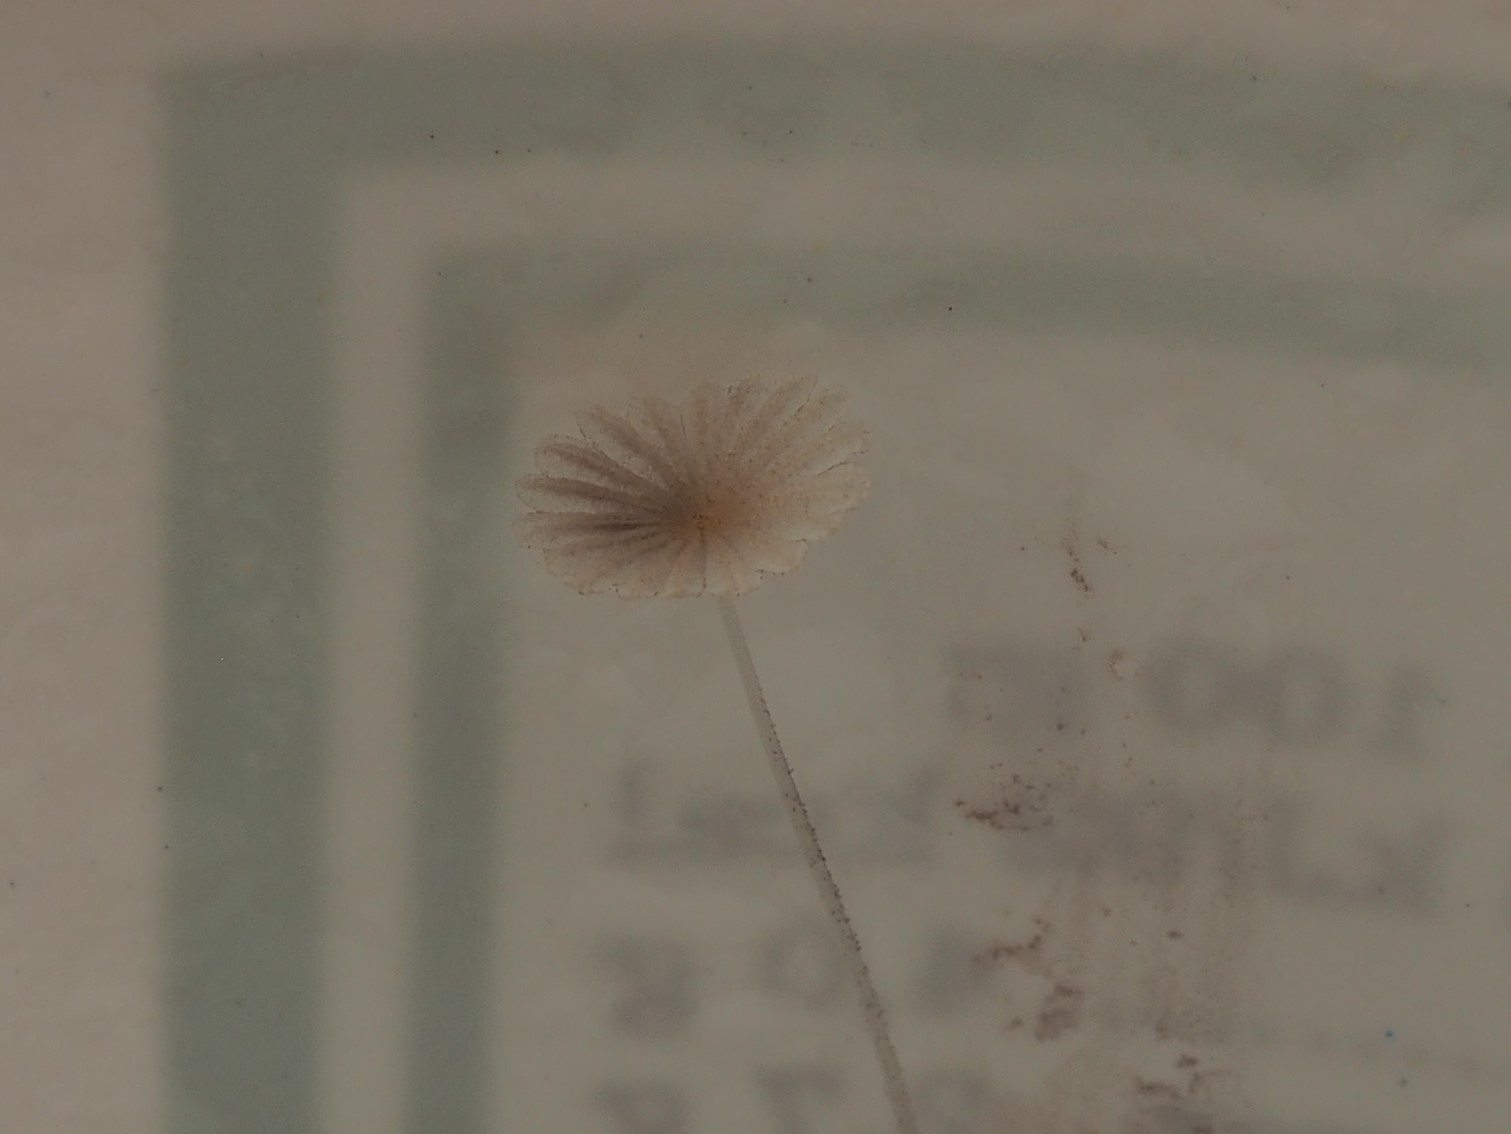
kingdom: Fungi
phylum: Basidiomycota
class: Agaricomycetes
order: Agaricales
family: Psathyrellaceae
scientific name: Psathyrellaceae
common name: mørkhatfamilien
